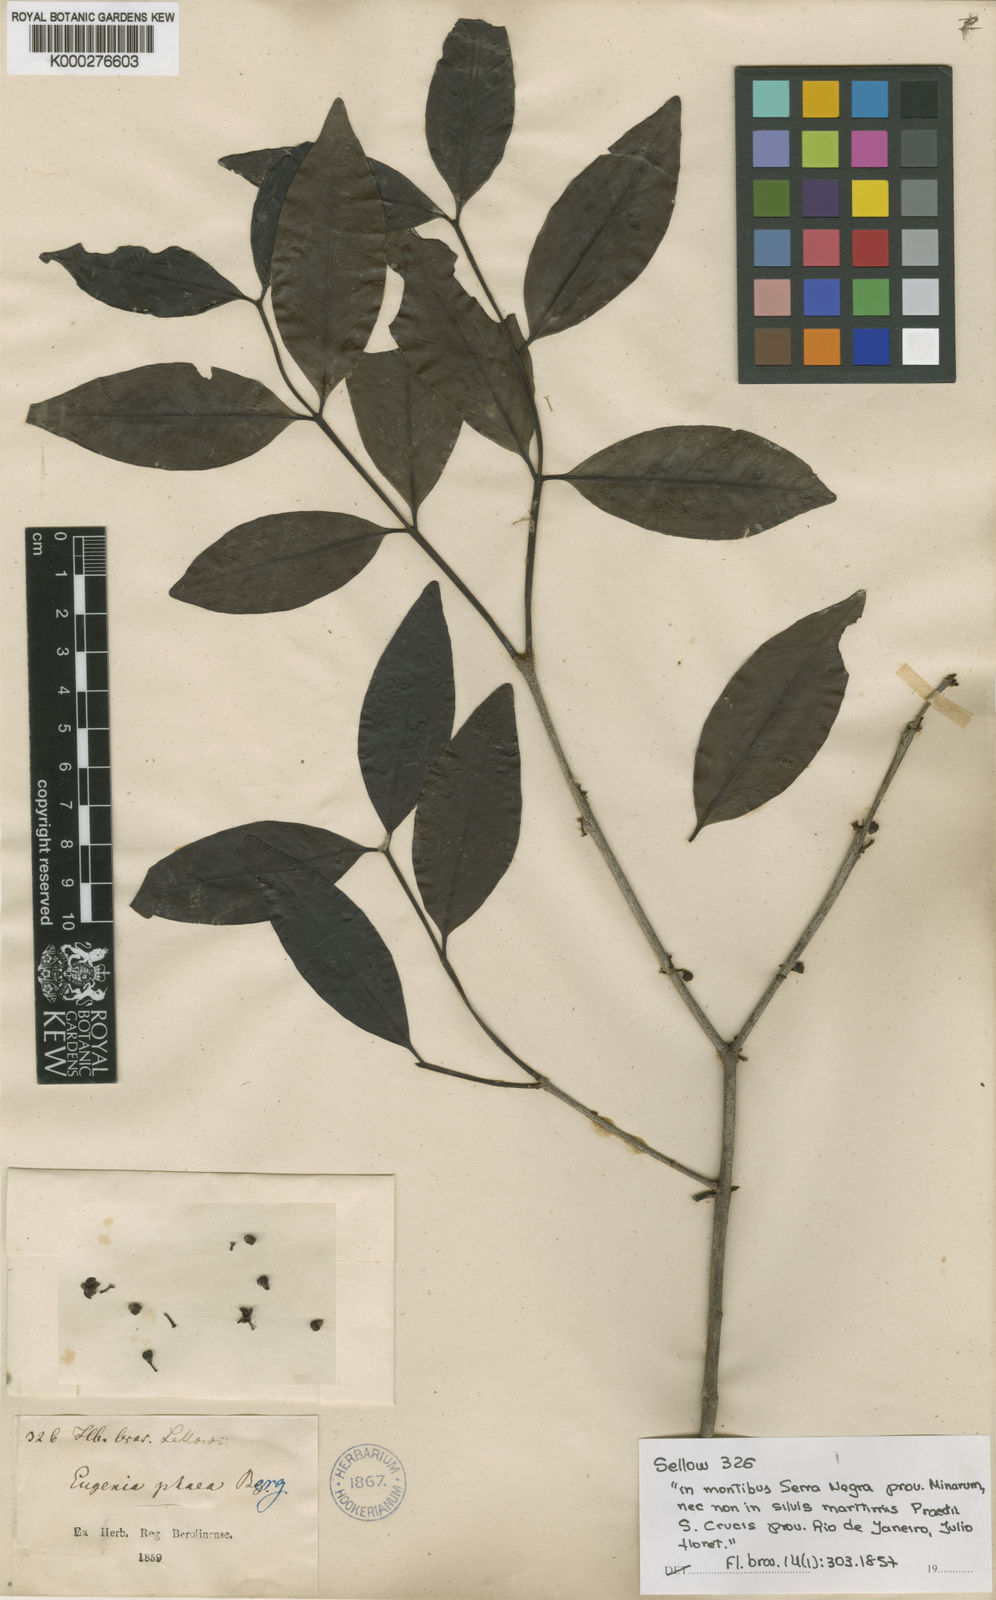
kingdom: Plantae
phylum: Tracheophyta
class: Magnoliopsida
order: Myrtales
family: Myrtaceae
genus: Eugenia
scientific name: Eugenia disperma
